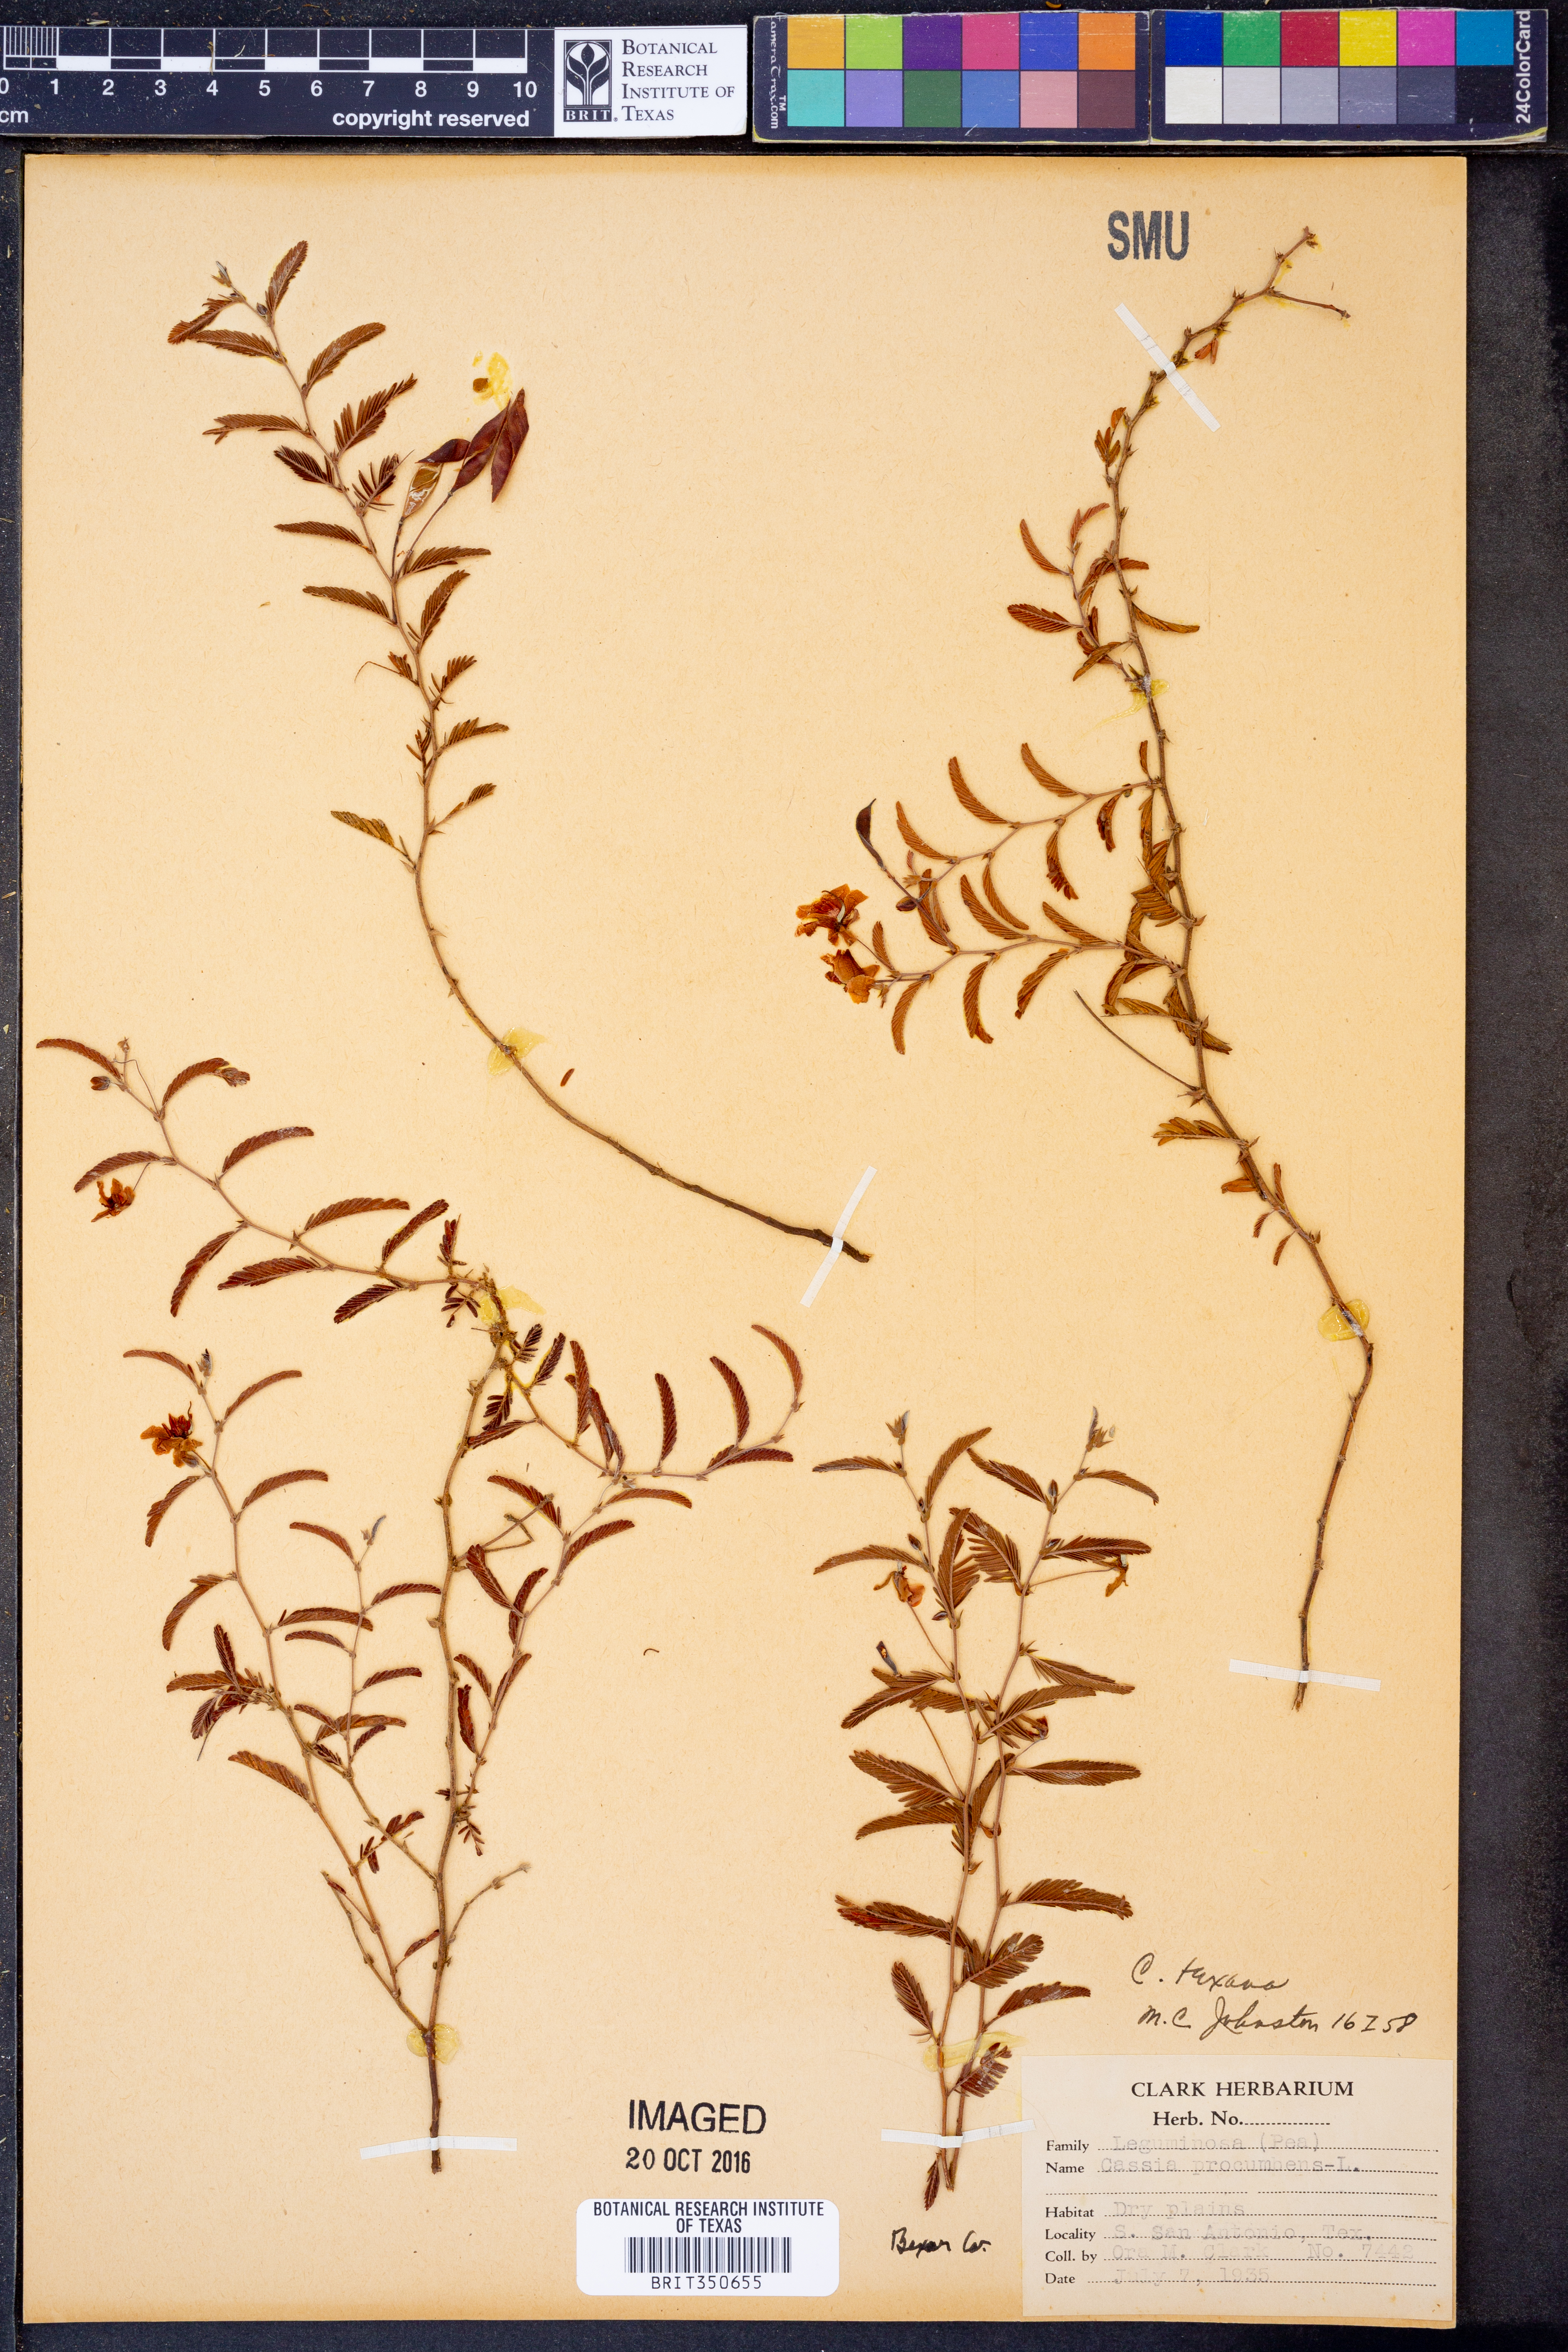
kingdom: Plantae
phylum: Tracheophyta
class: Magnoliopsida
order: Fabales
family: Fabaceae
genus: Chamaecrista
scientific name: Chamaecrista flexuosa
